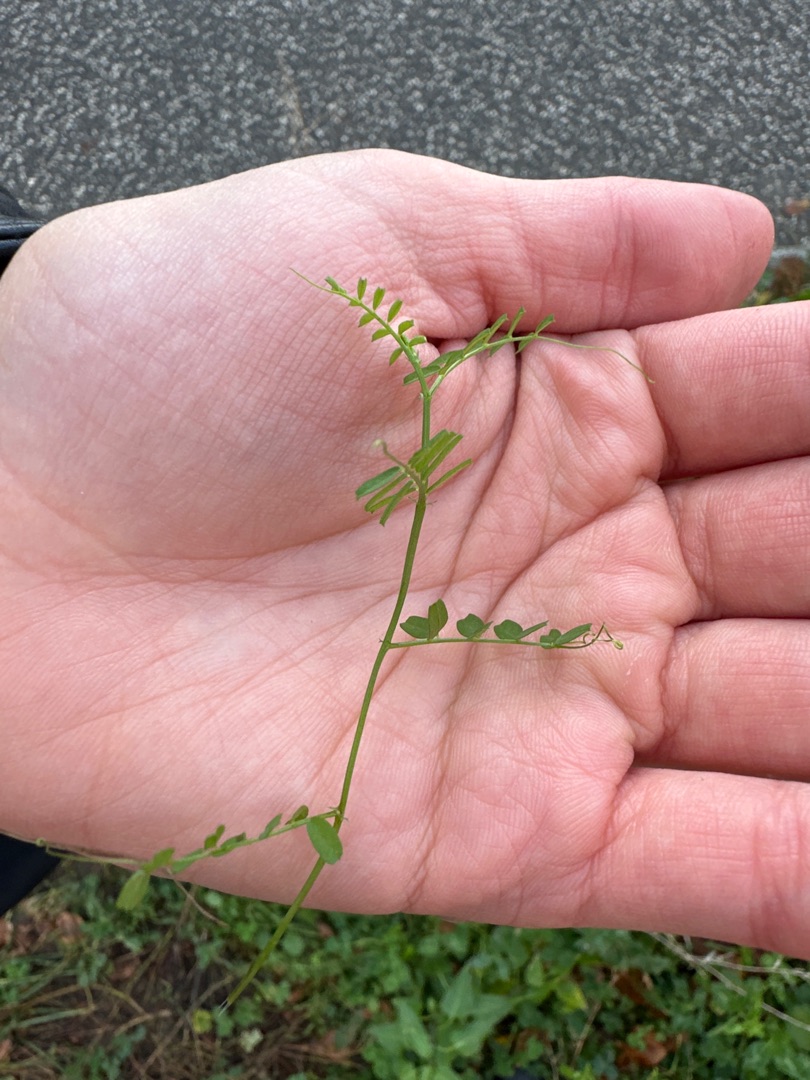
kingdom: Plantae
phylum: Tracheophyta
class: Magnoliopsida
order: Fabales
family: Fabaceae
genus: Vicia
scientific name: Vicia
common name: Vikkeslægten
